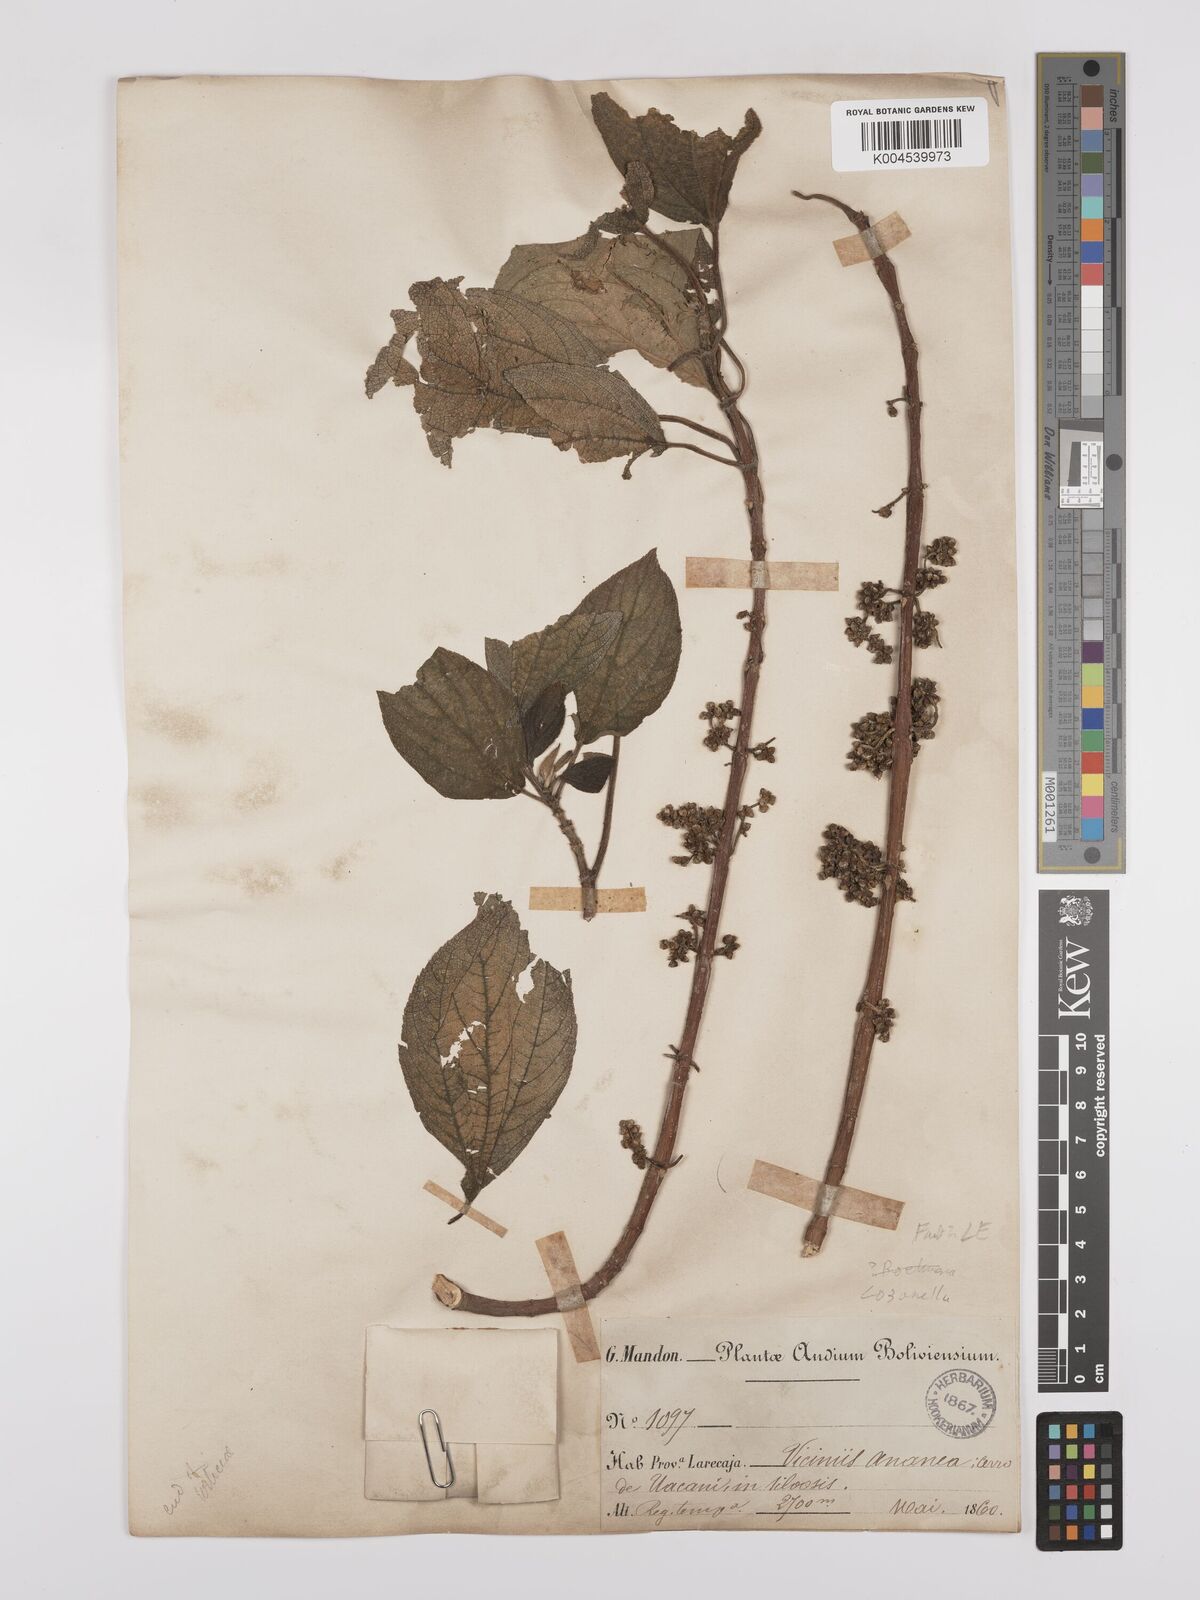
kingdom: Plantae
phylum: Tracheophyta
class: Magnoliopsida
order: Rosales
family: Cannabaceae
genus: Lozanella
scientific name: Lozanella enantiophylla
